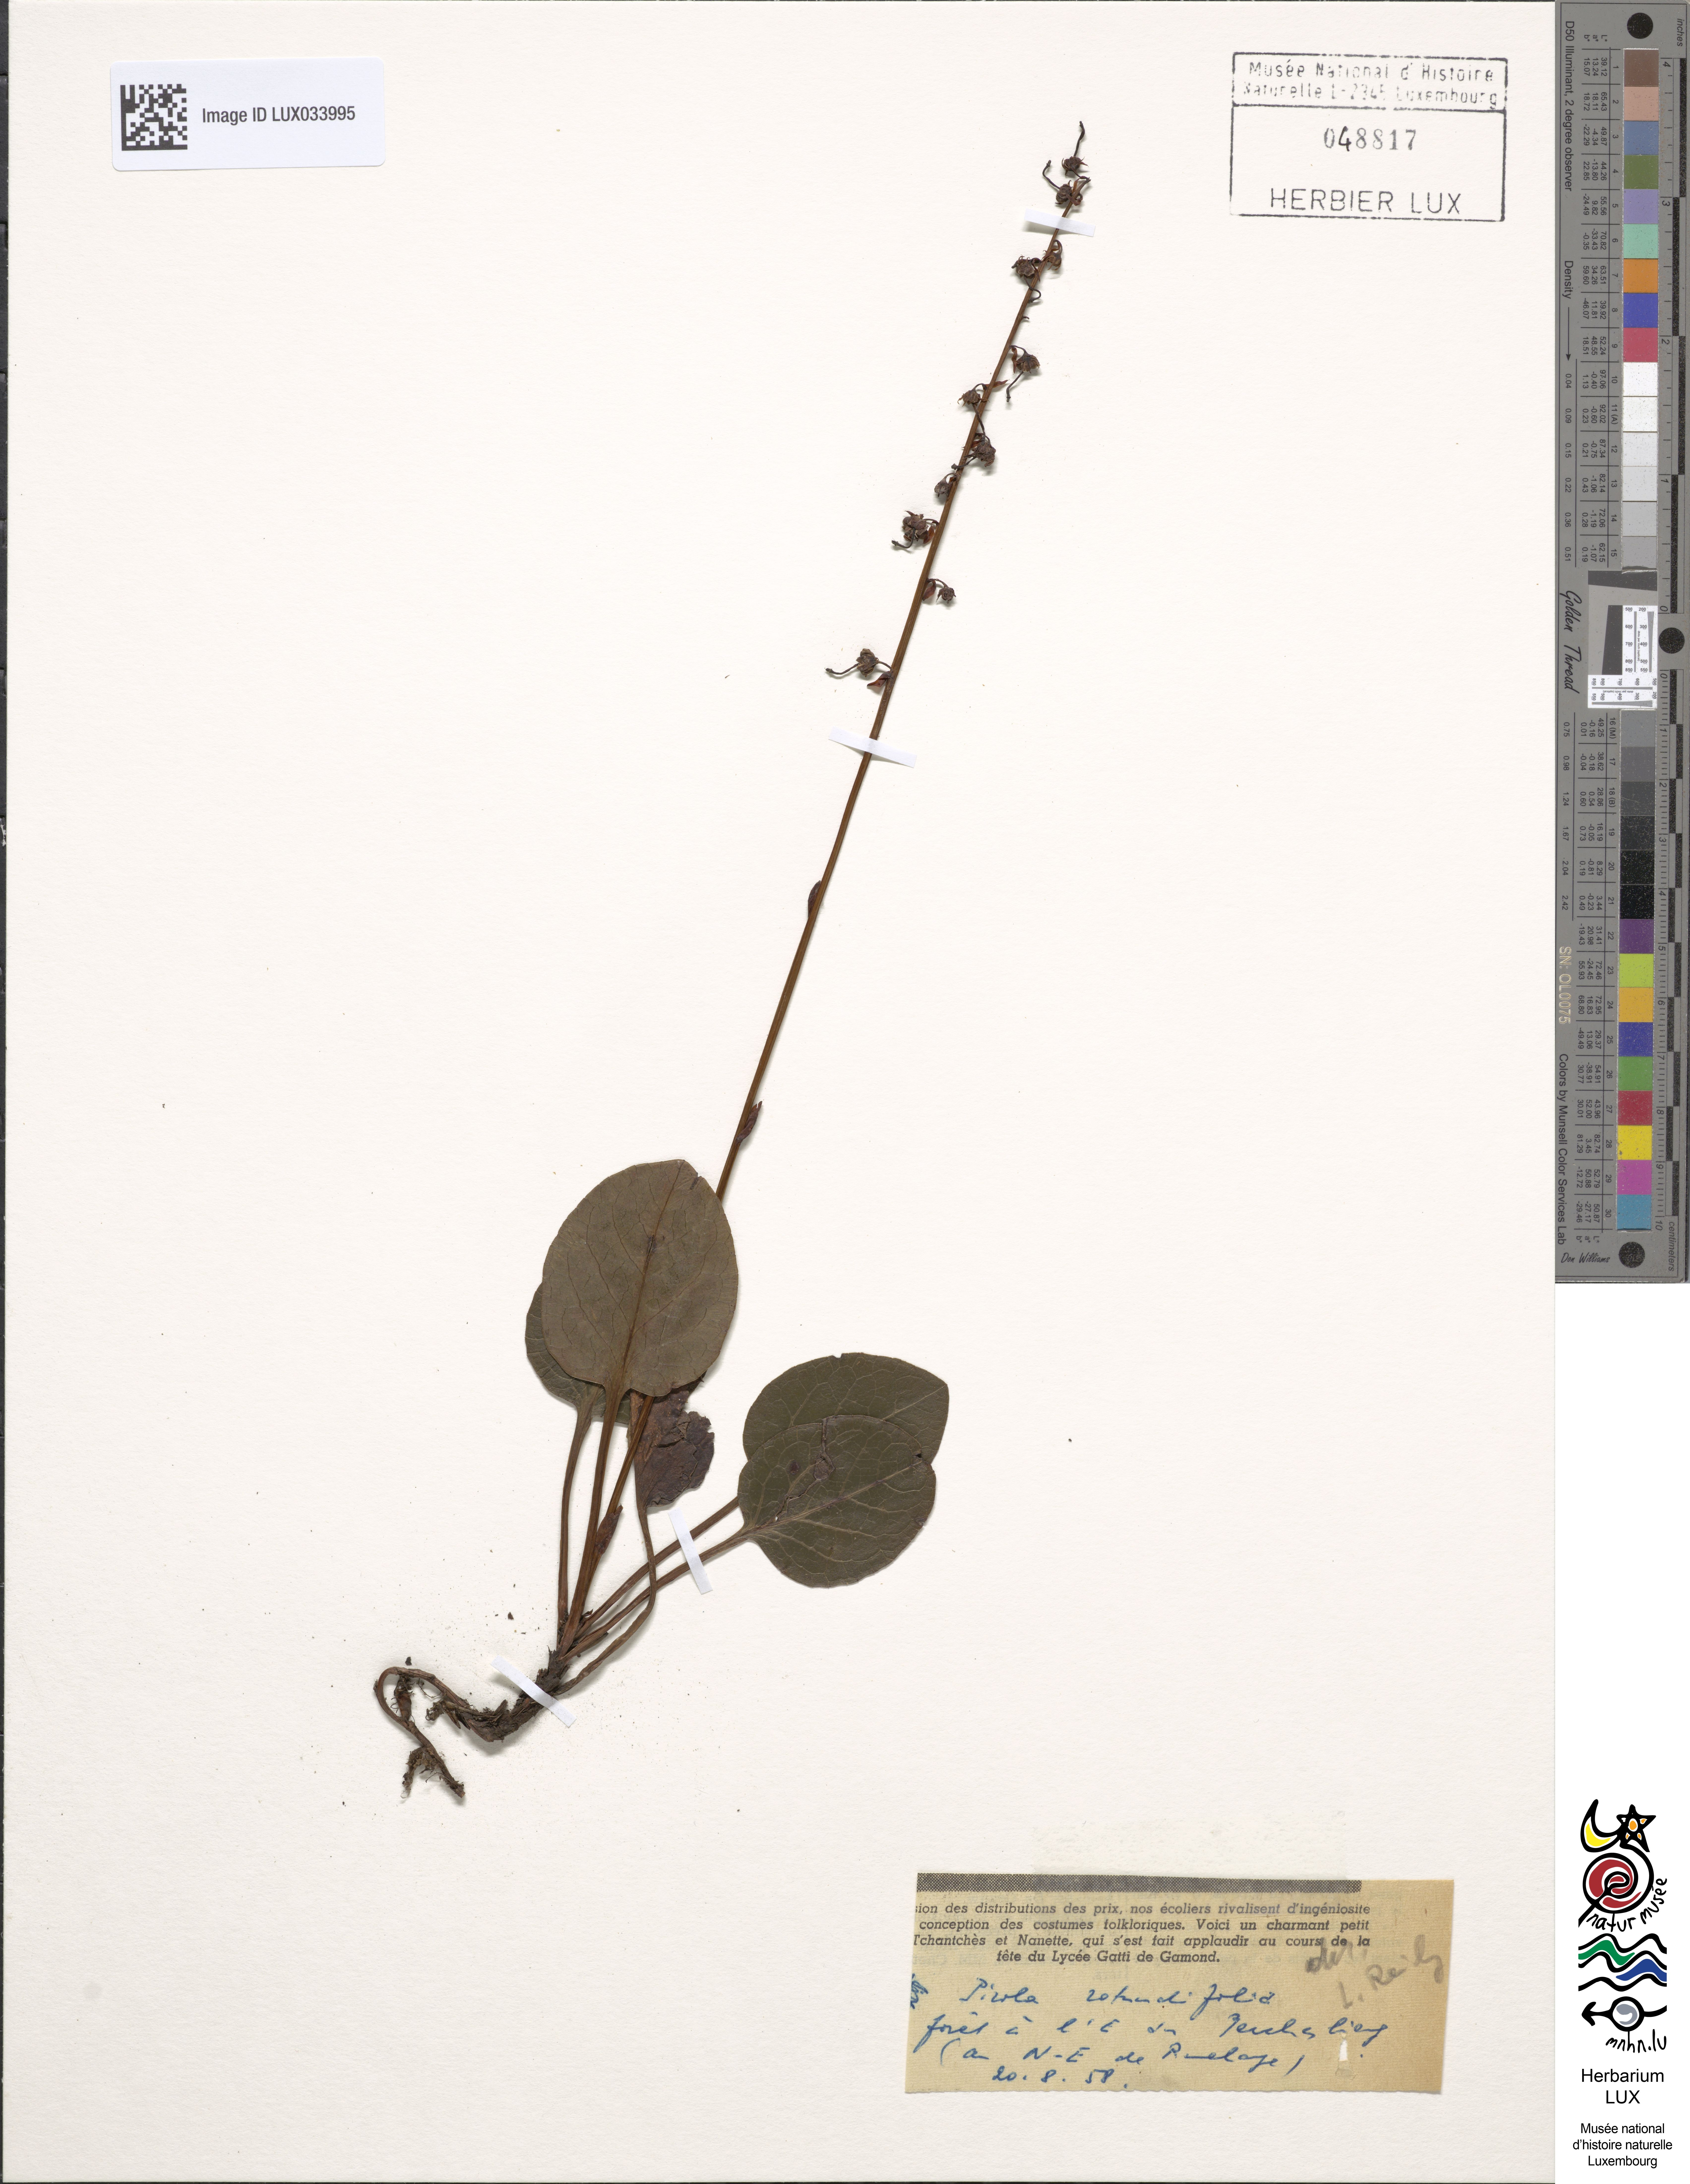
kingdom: Plantae
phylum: Tracheophyta
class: Magnoliopsida
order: Ericales
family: Ericaceae
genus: Pyrola
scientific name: Pyrola rotundifolia
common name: Round-leaved wintergreen
